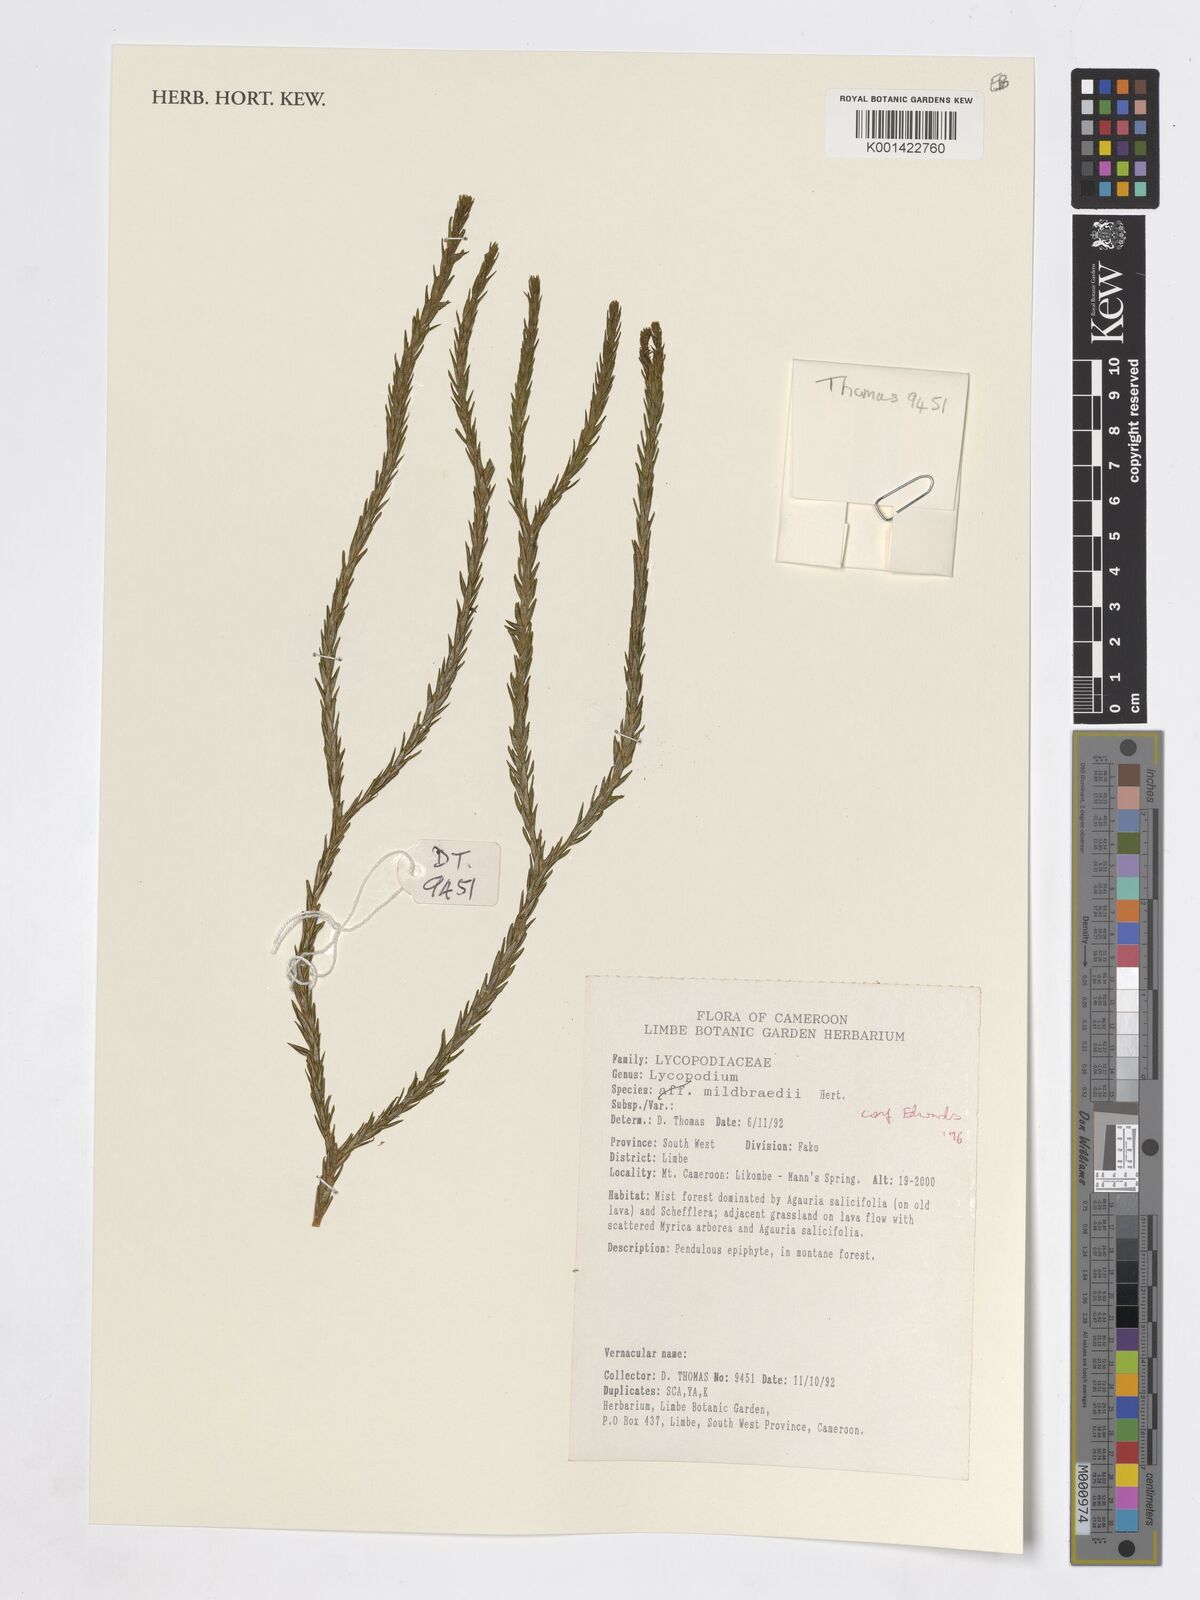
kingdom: Plantae
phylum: Tracheophyta
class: Lycopodiopsida
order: Lycopodiales
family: Lycopodiaceae
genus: Phlegmariurus
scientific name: Phlegmariurus mildbraedii
